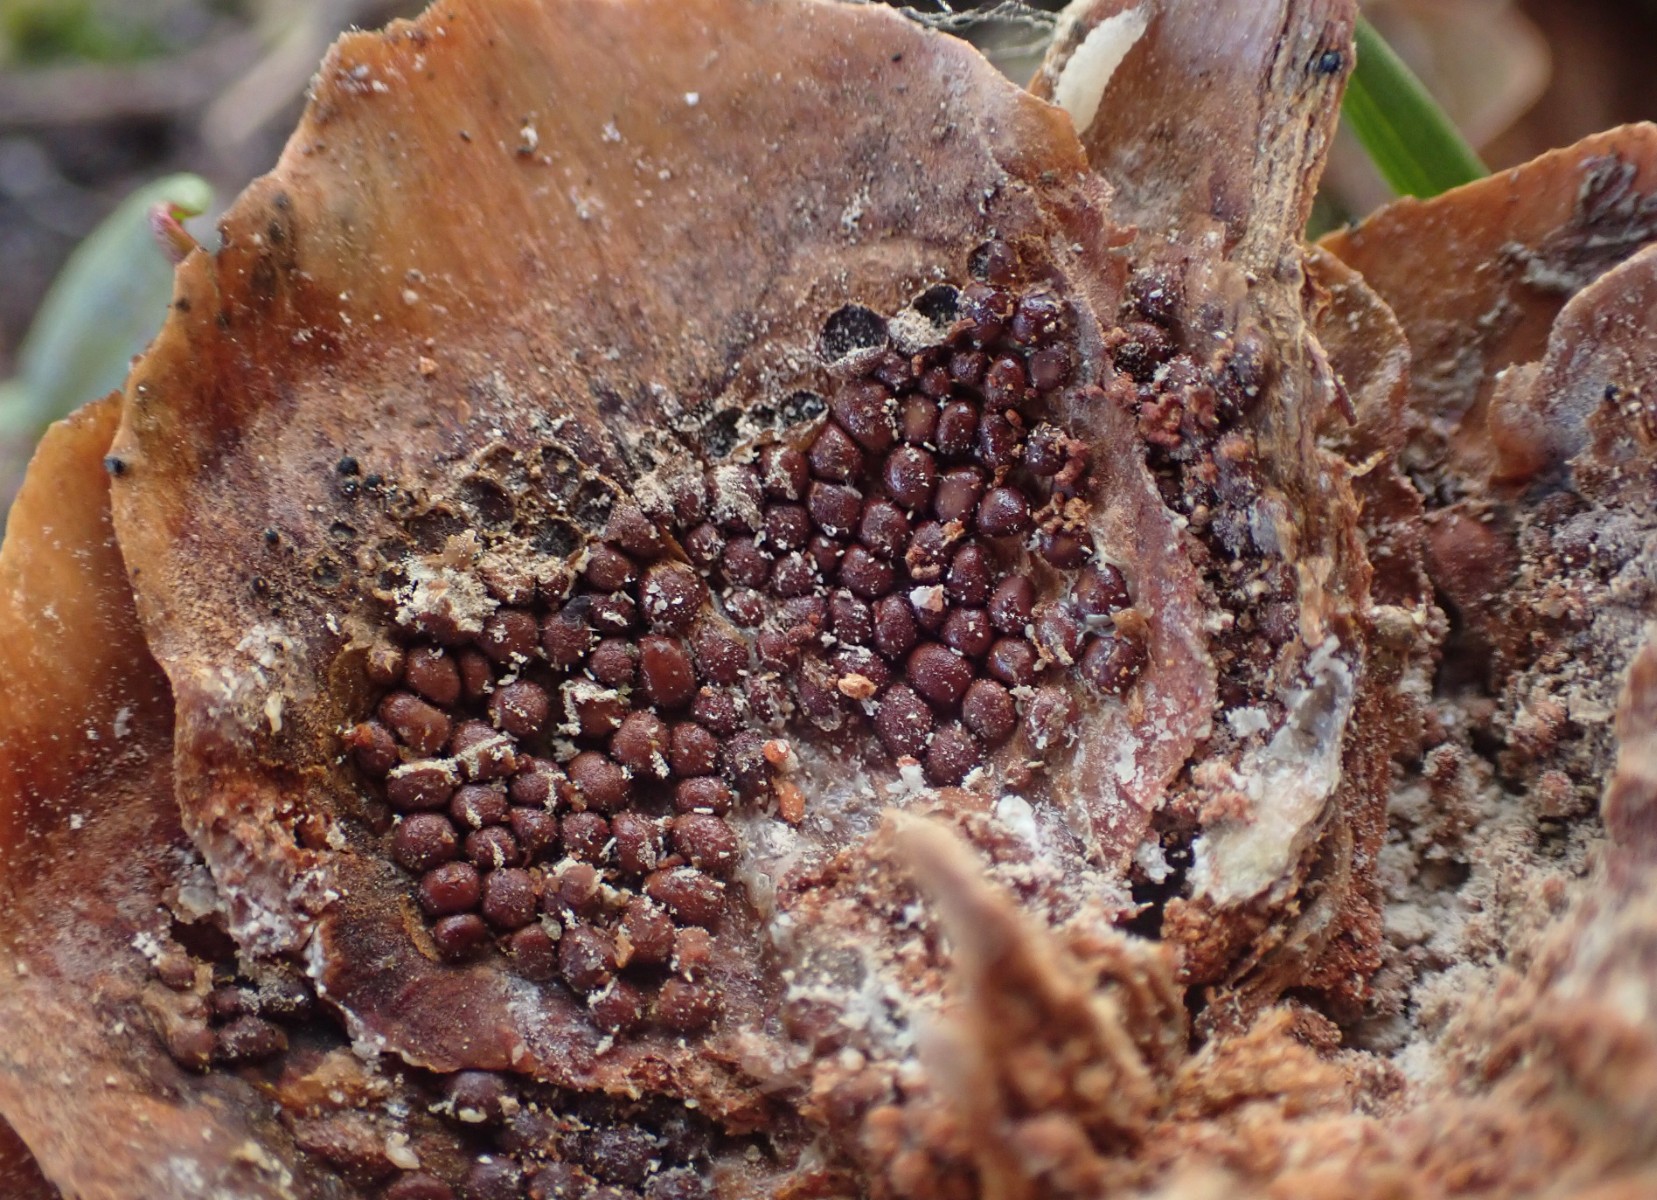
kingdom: Fungi
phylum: Basidiomycota
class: Pucciniomycetes
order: Pucciniales
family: Pucciniastraceae
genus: Thekopsora
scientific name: Thekopsora areolata
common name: grankogle-nålerust
